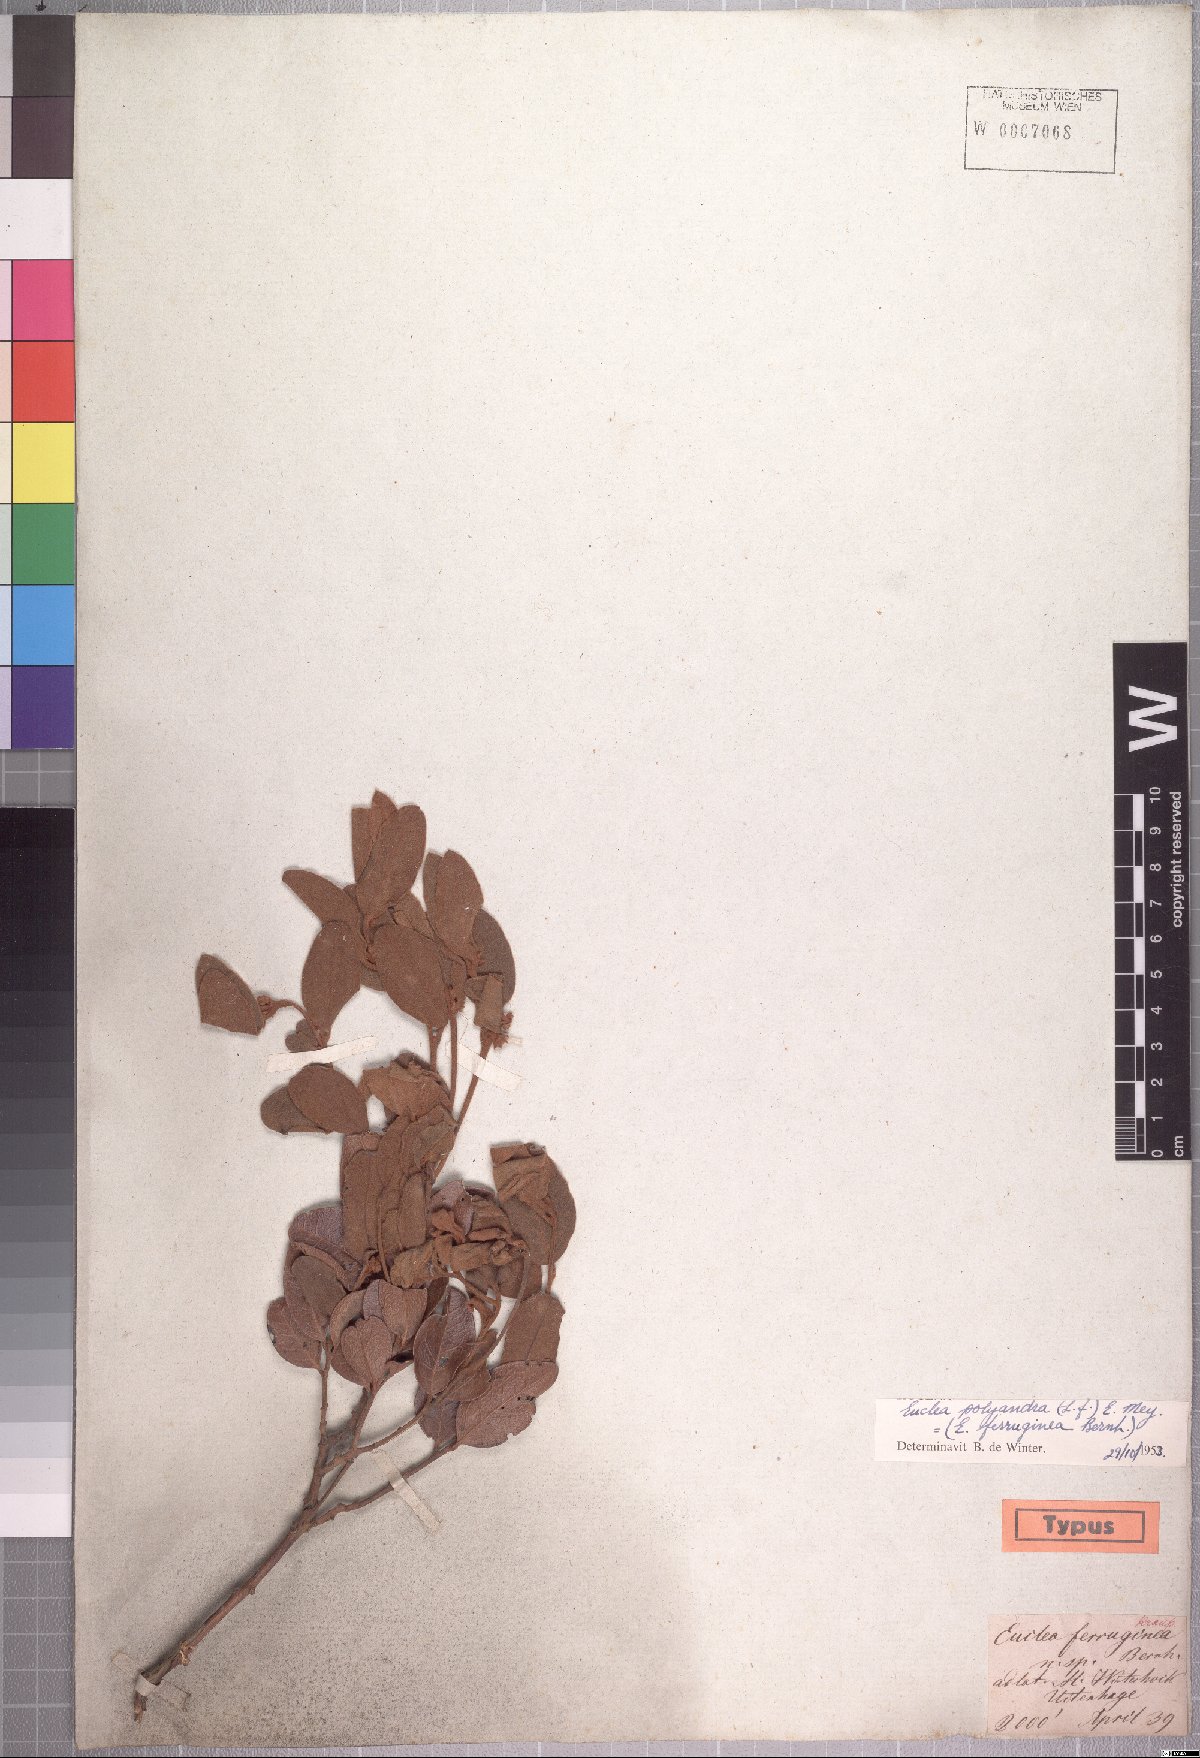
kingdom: Plantae
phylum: Tracheophyta
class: Magnoliopsida
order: Ericales
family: Ebenaceae
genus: Euclea
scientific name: Euclea polyandra
